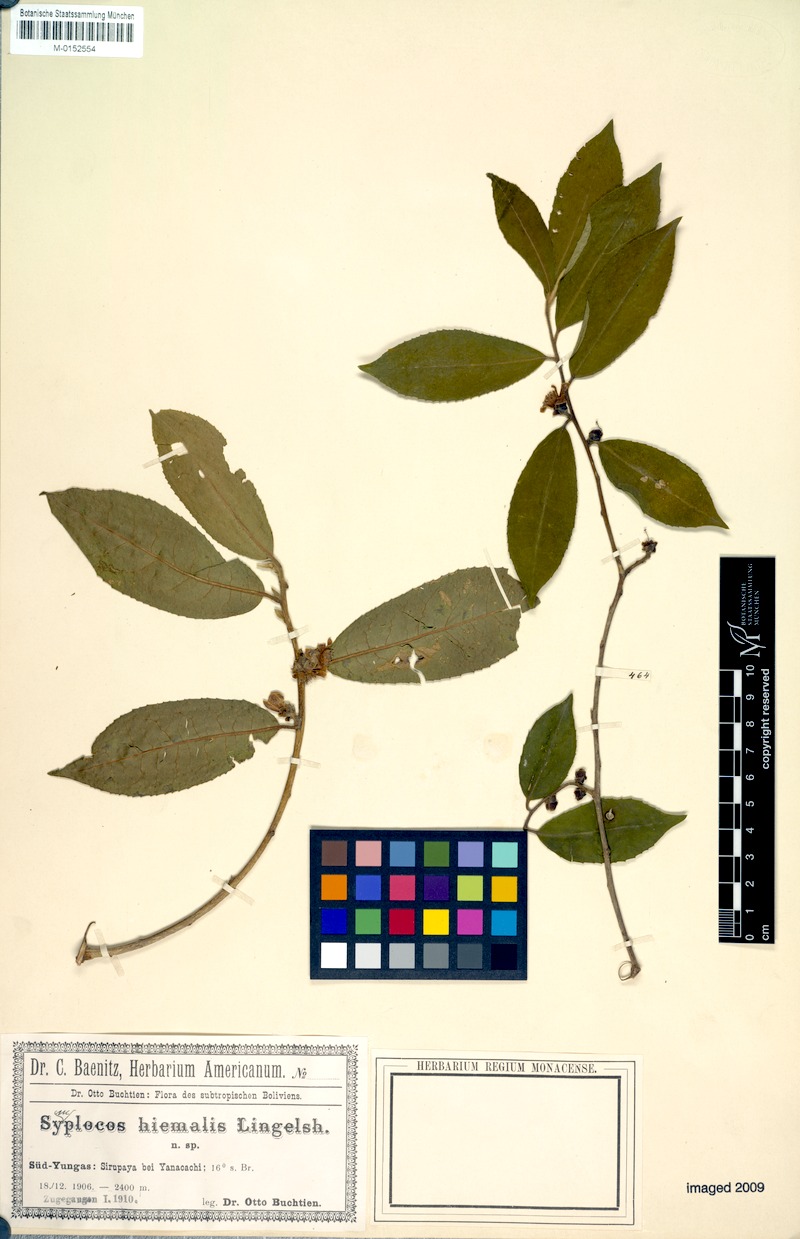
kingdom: Plantae
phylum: Tracheophyta
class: Magnoliopsida
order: Ericales
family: Symplocaceae
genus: Symplocos
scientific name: Symplocos hiemalis
